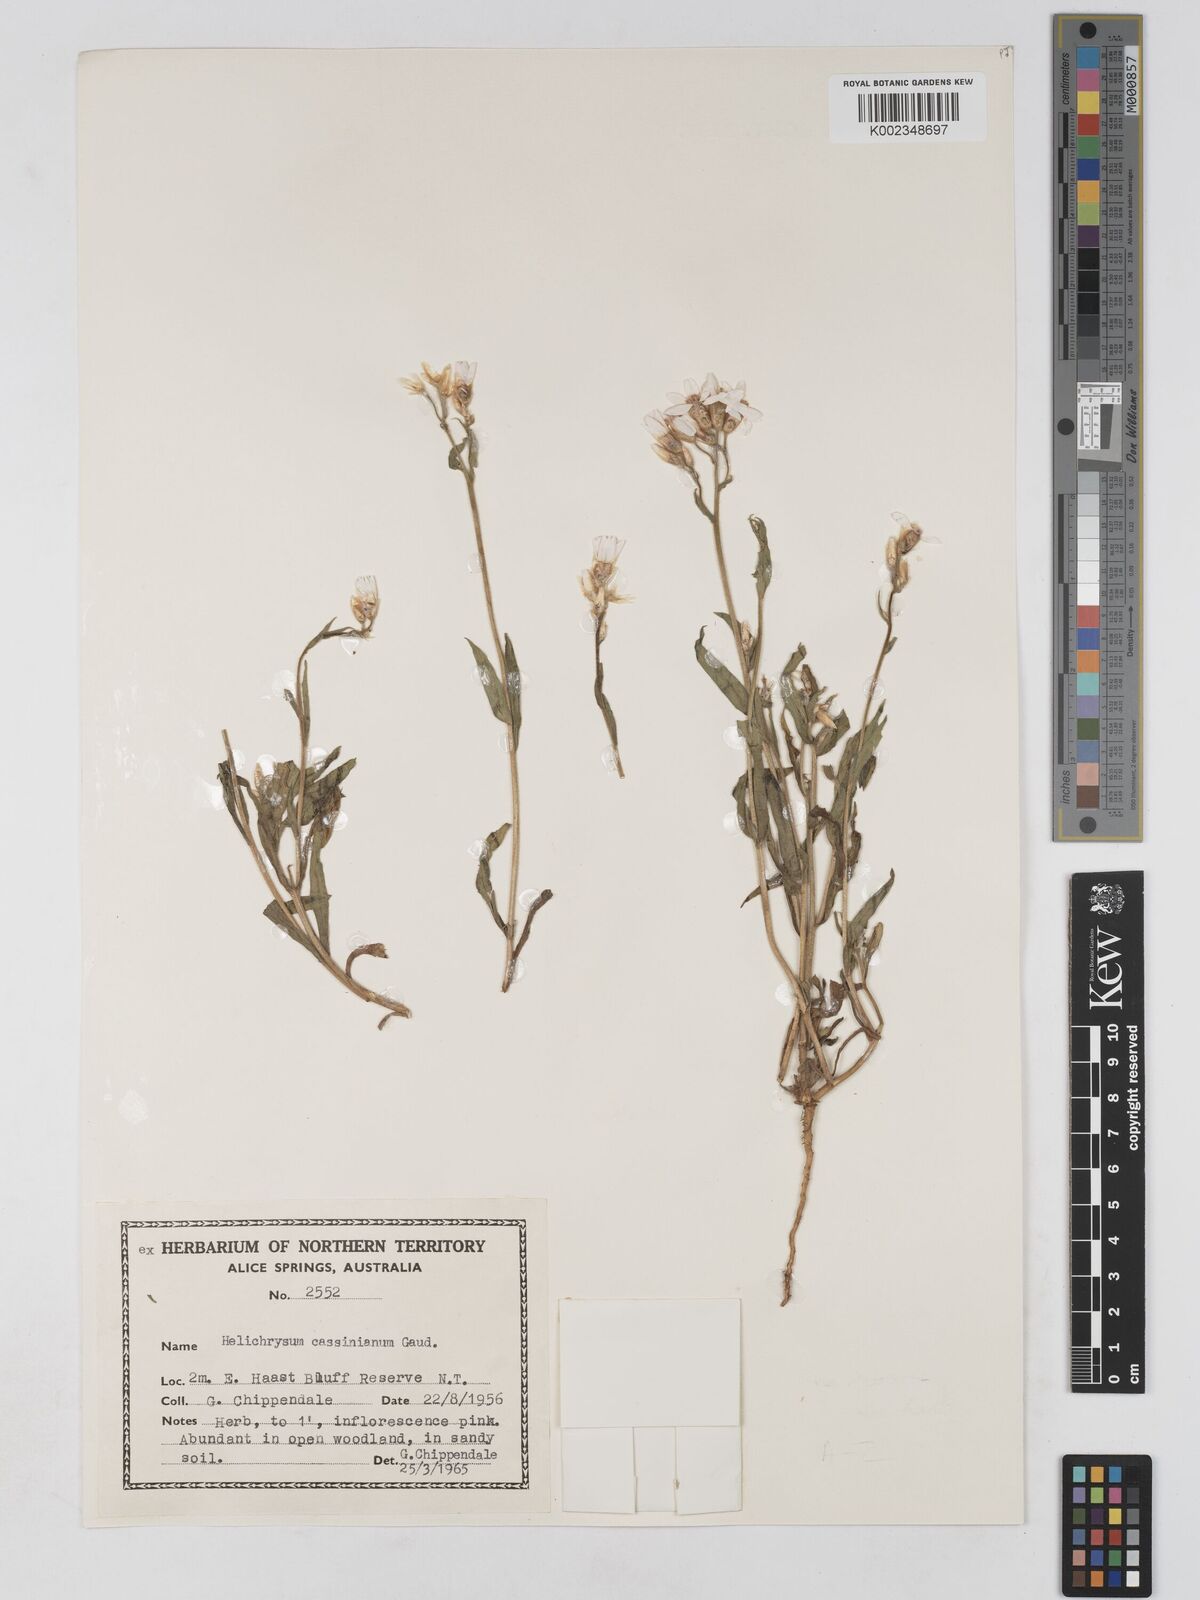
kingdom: Plantae
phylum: Tracheophyta
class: Magnoliopsida
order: Asterales
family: Asteraceae
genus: Schoenia
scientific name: Schoenia cassiniana
